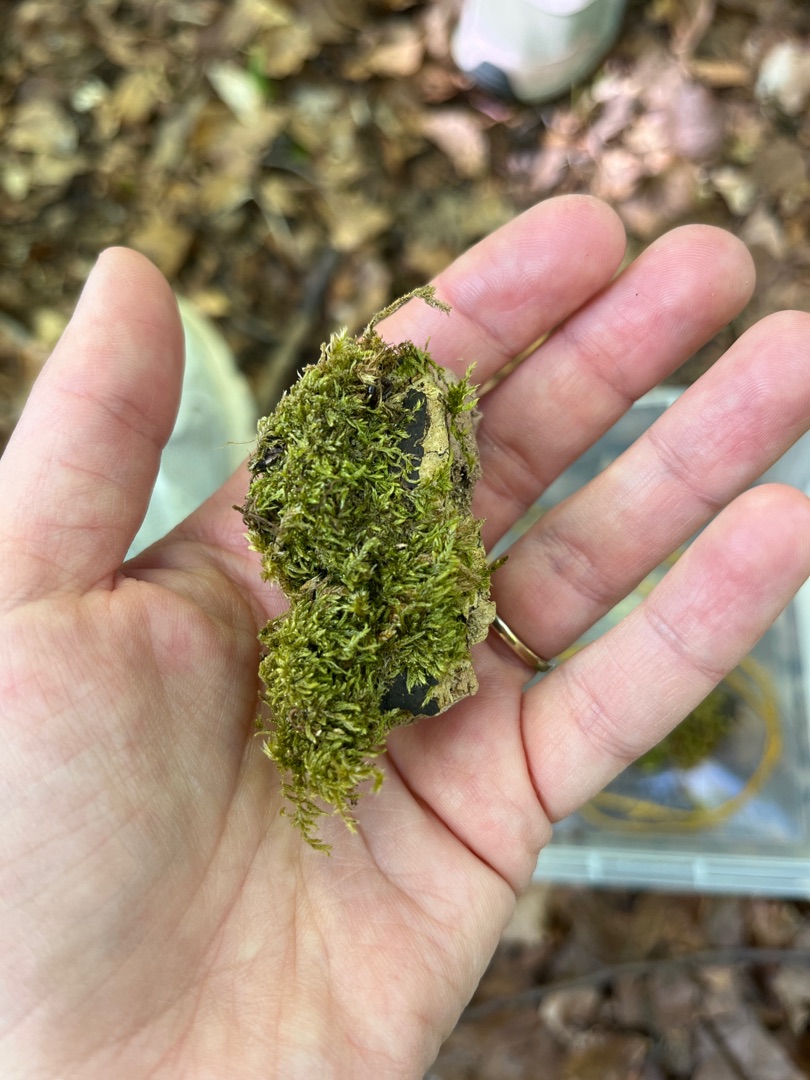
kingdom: Plantae
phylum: Bryophyta
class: Bryopsida
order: Hypnales
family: Hypnaceae
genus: Hypnum
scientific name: Hypnum
